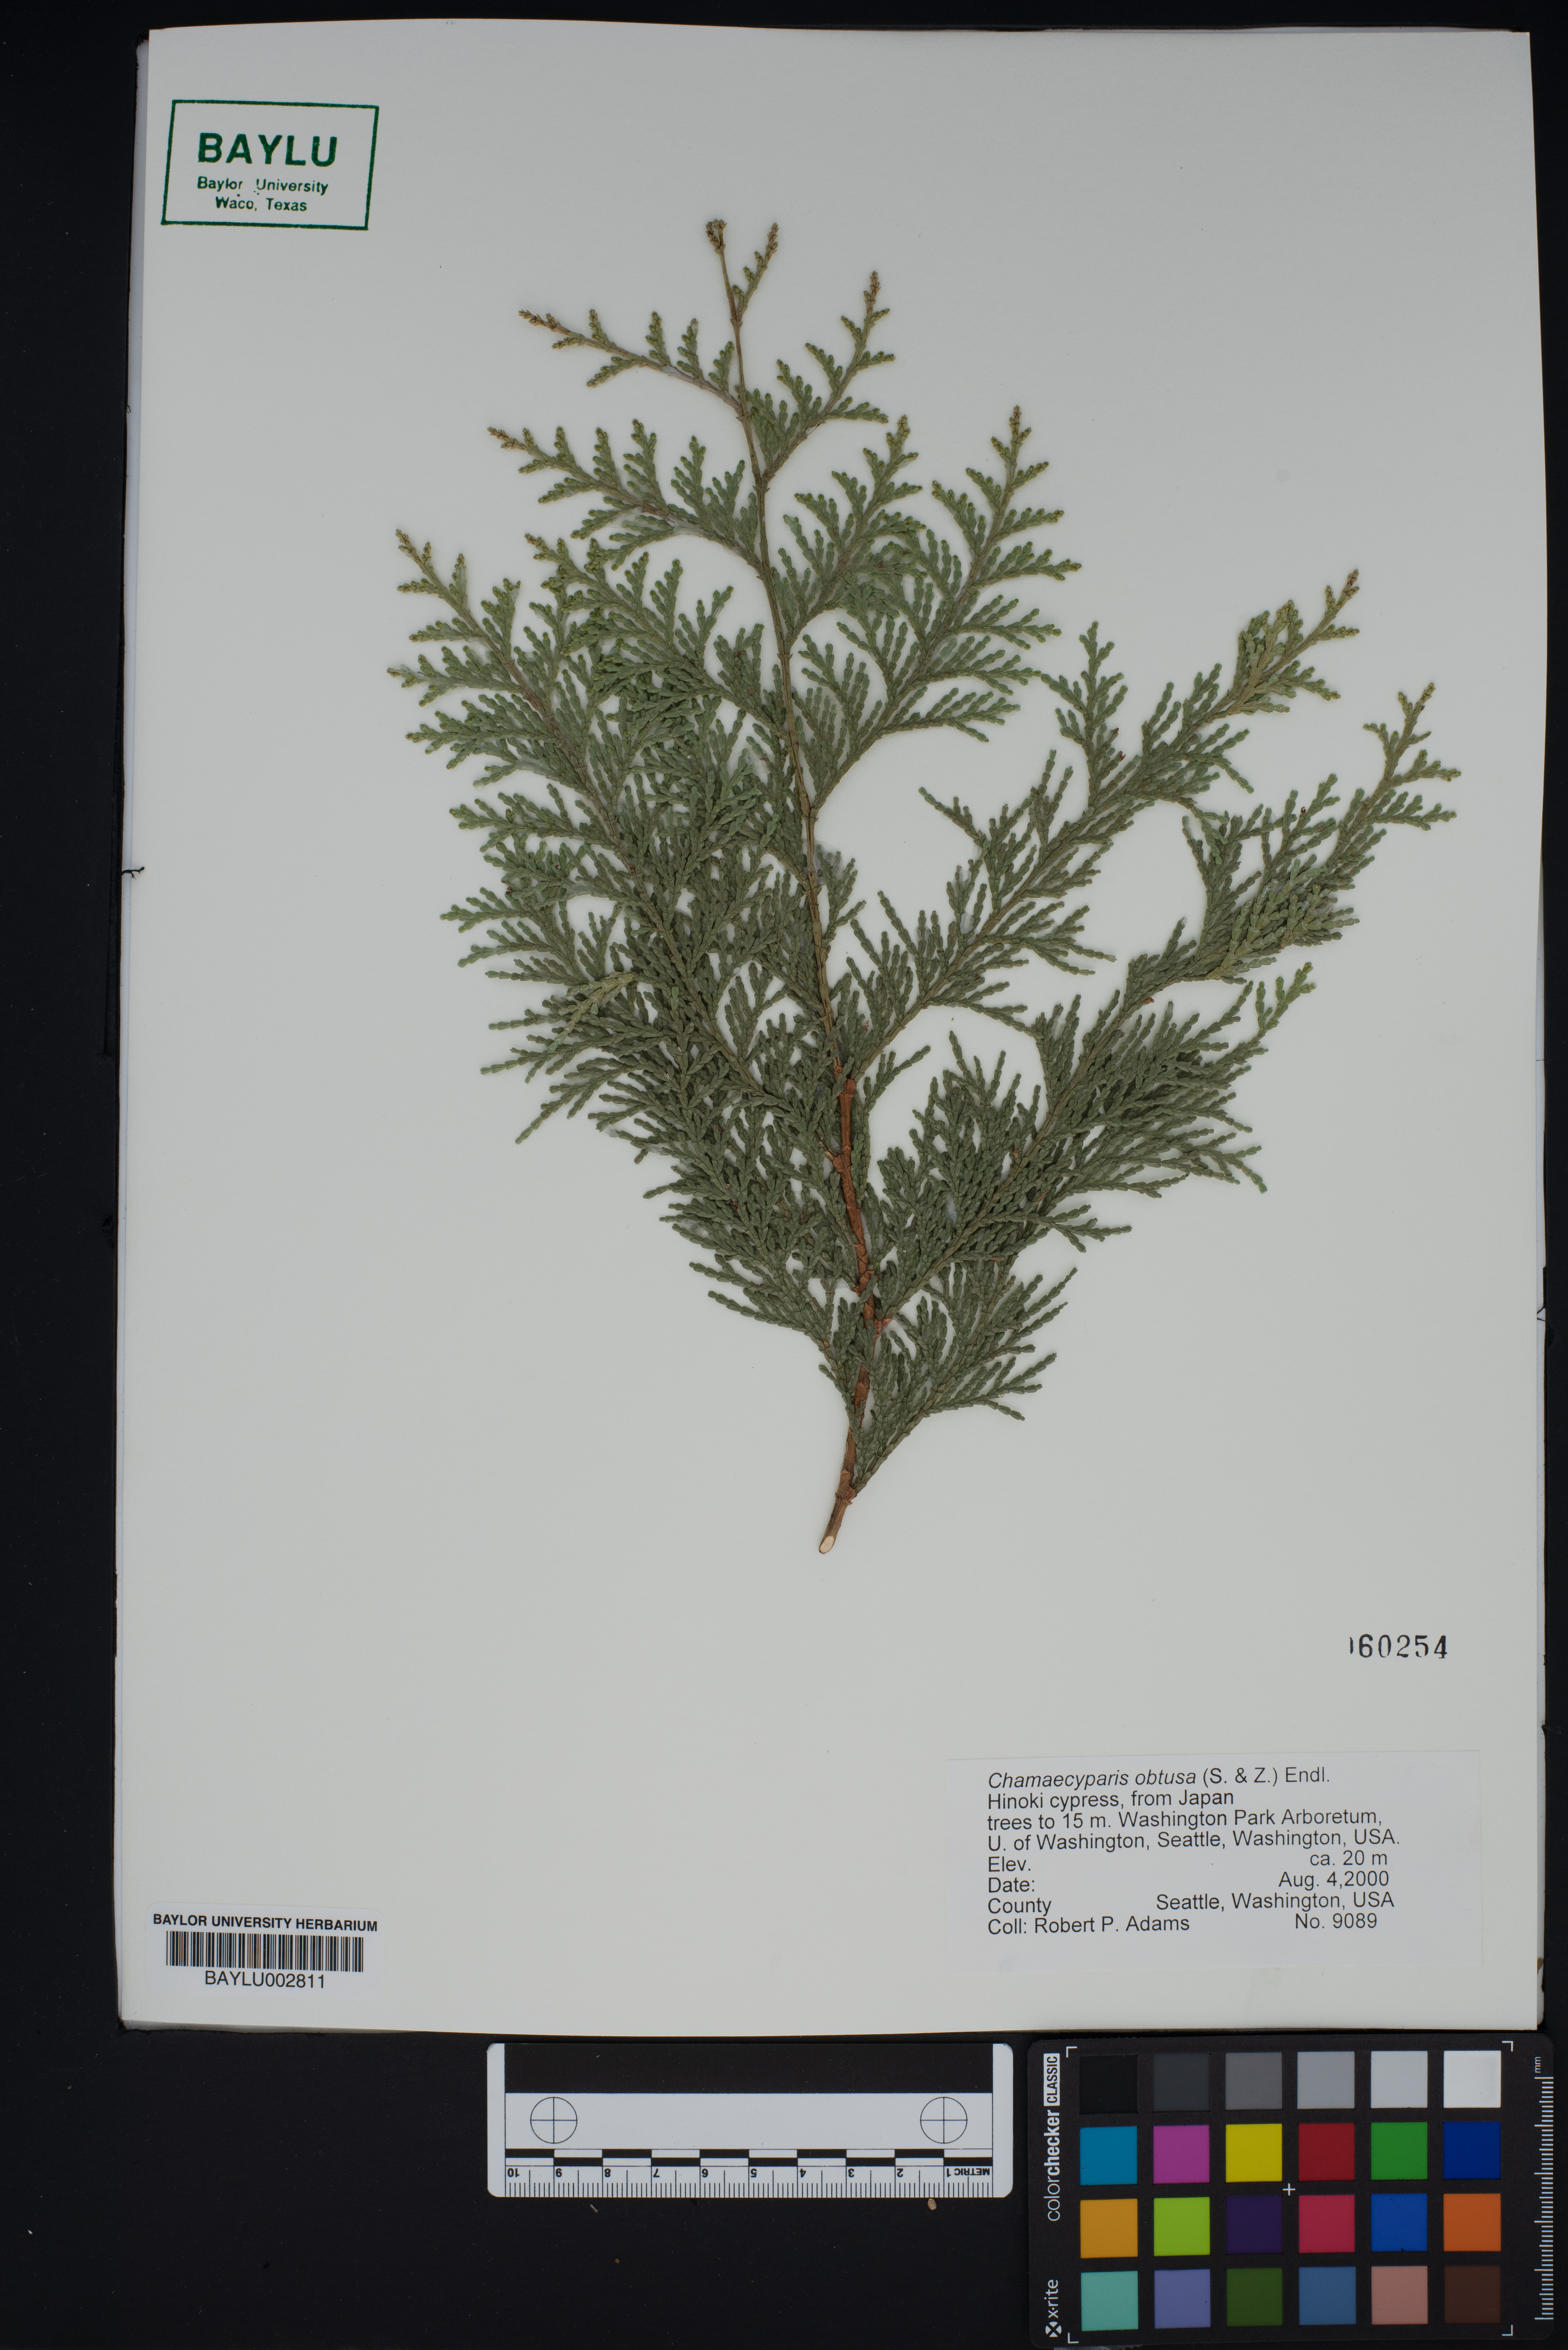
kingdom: Plantae
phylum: Tracheophyta
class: Pinopsida
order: Pinales
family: Cupressaceae
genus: Chamaecyparis
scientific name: Chamaecyparis obtusa
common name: Hinoki false cypress
